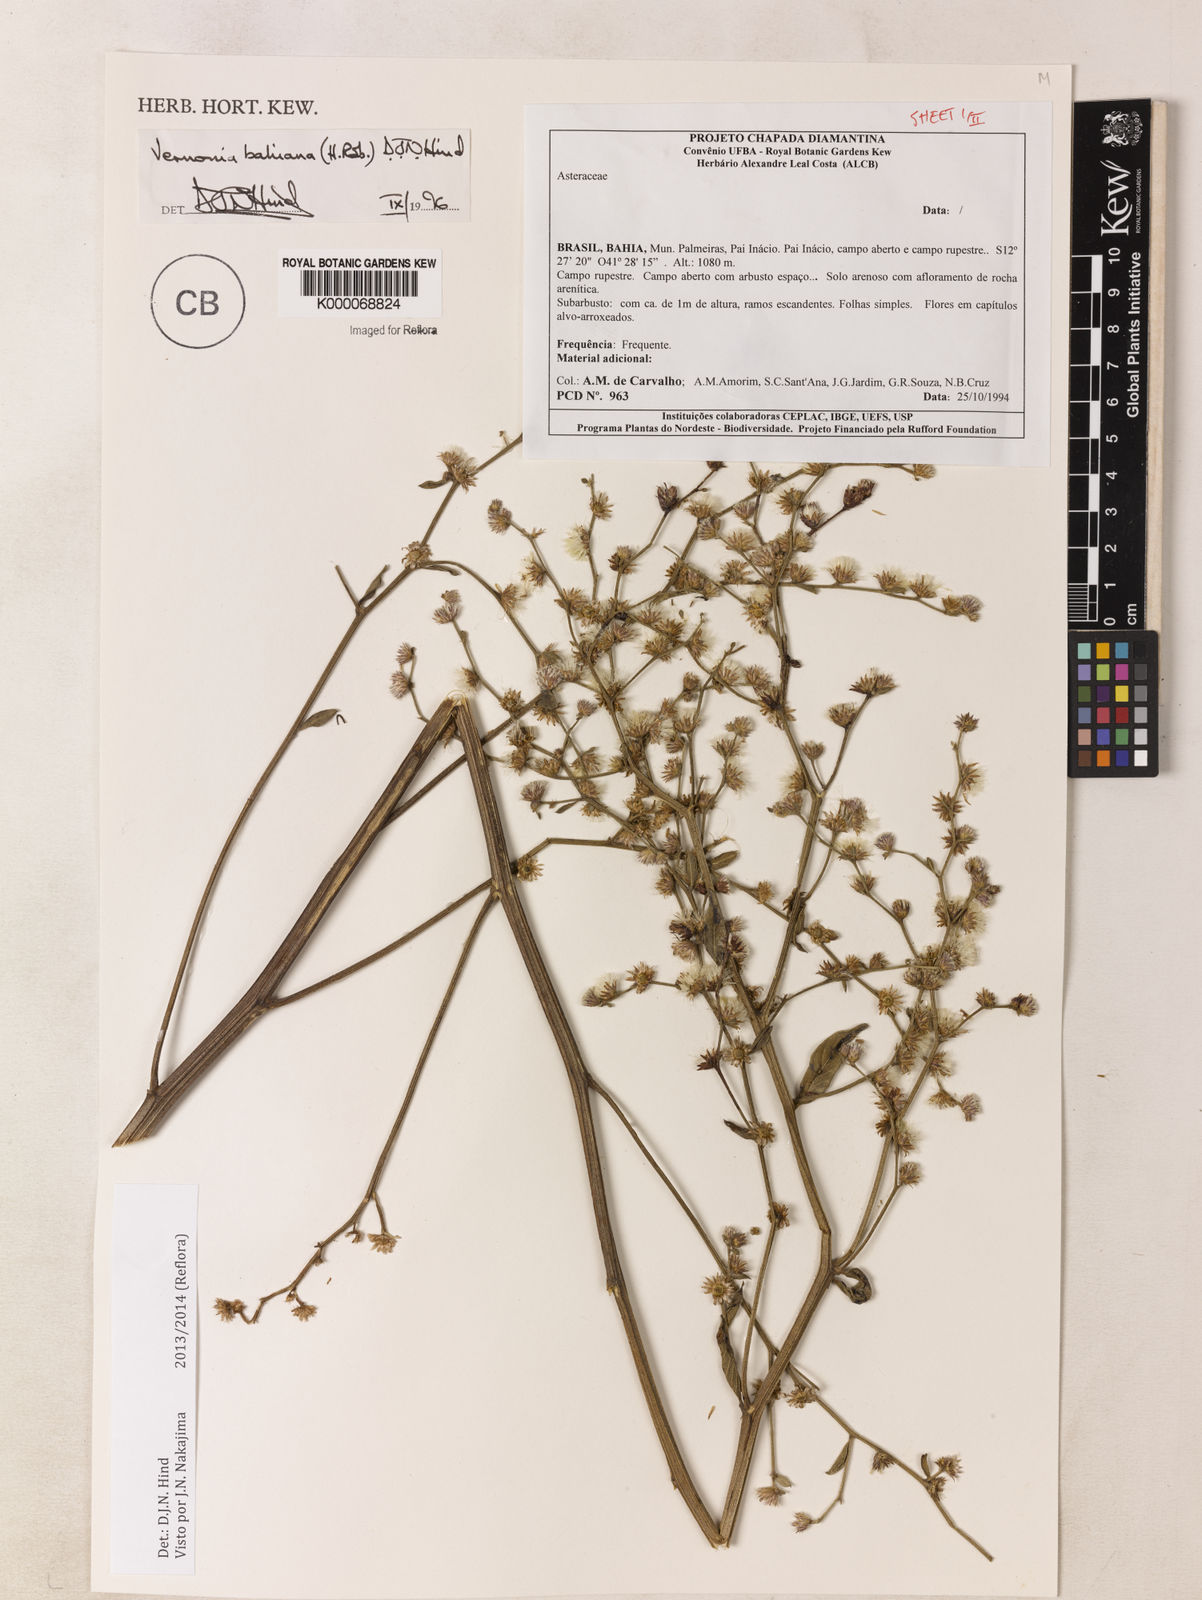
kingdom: Plantae
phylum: Tracheophyta
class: Magnoliopsida
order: Asterales
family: Asteraceae
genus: Lepidaploa
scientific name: Lepidaploa bahiana
